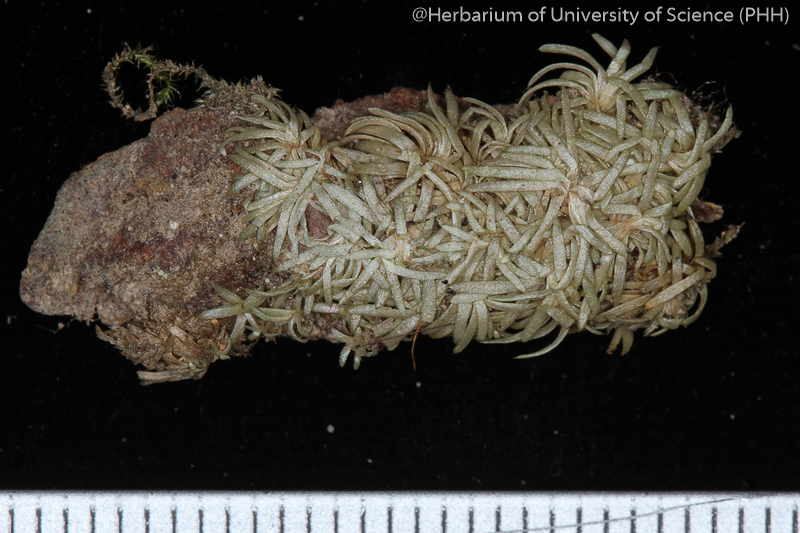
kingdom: Plantae
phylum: Bryophyta
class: Bryopsida
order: Dicranales
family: Octoblepharaceae
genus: Octoblepharum
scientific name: Octoblepharum albidum
